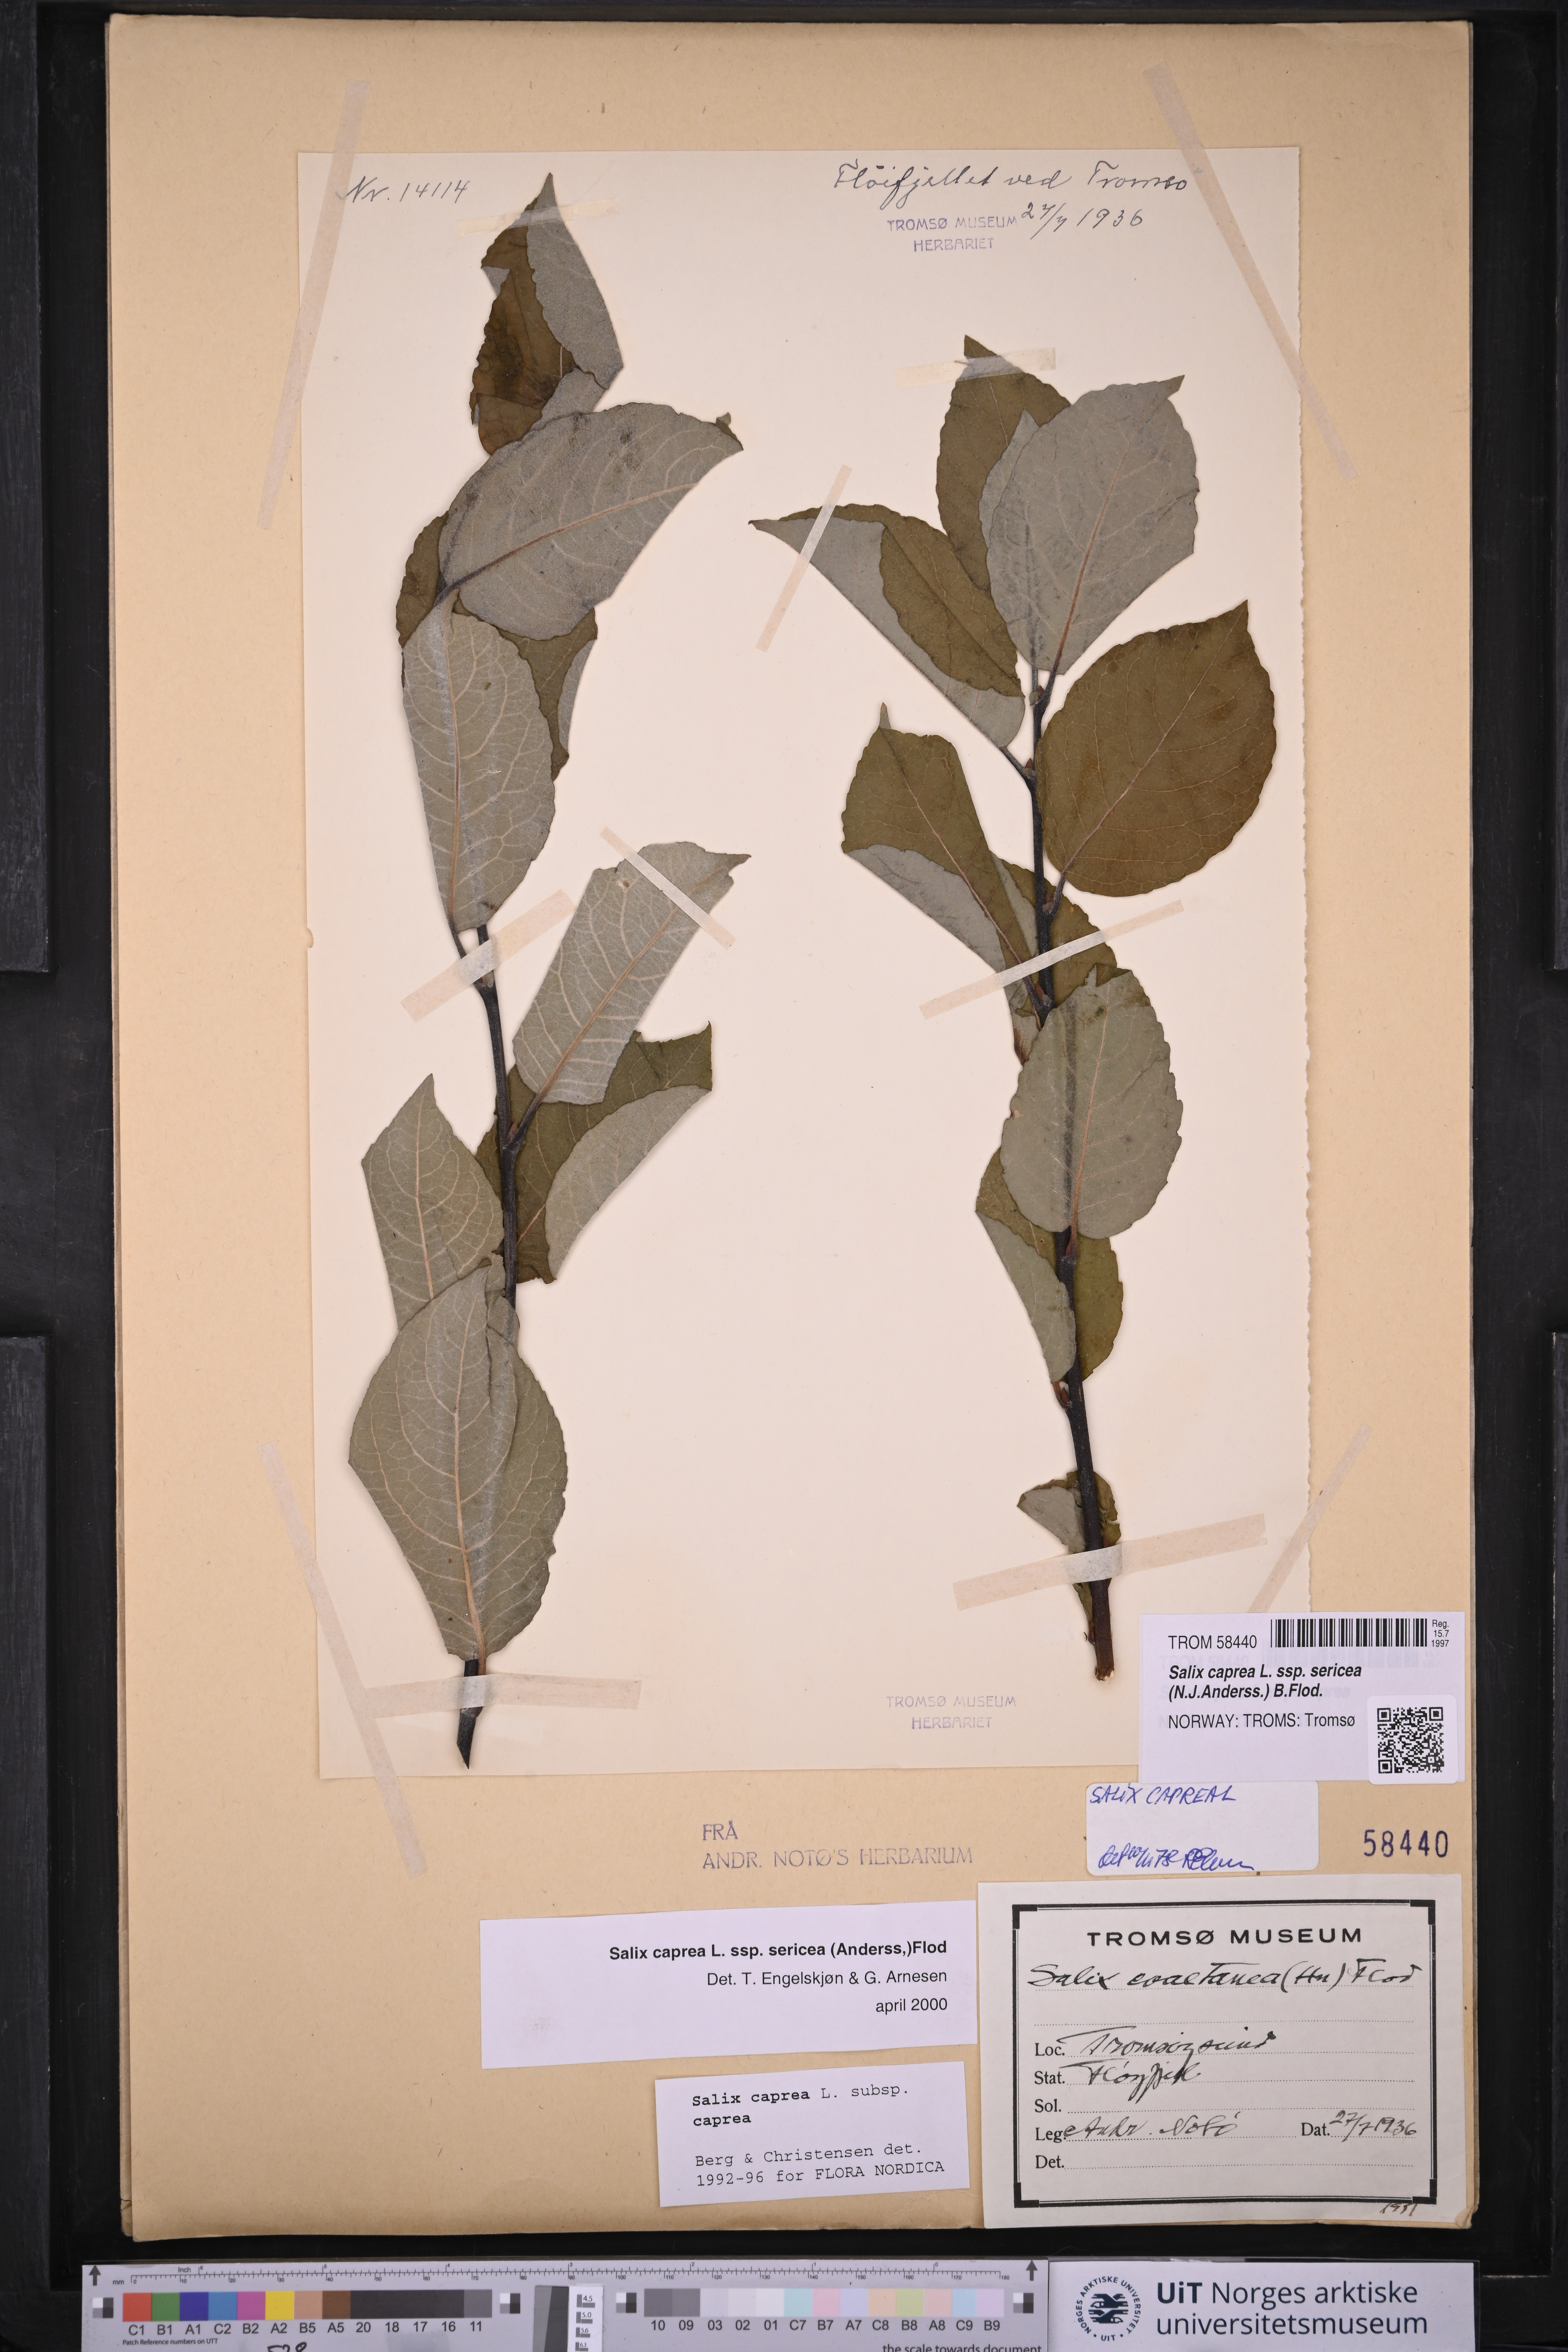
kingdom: Plantae
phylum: Tracheophyta
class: Magnoliopsida
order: Malpighiales
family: Salicaceae
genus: Salix
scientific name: Salix caprea
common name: Goat willow
